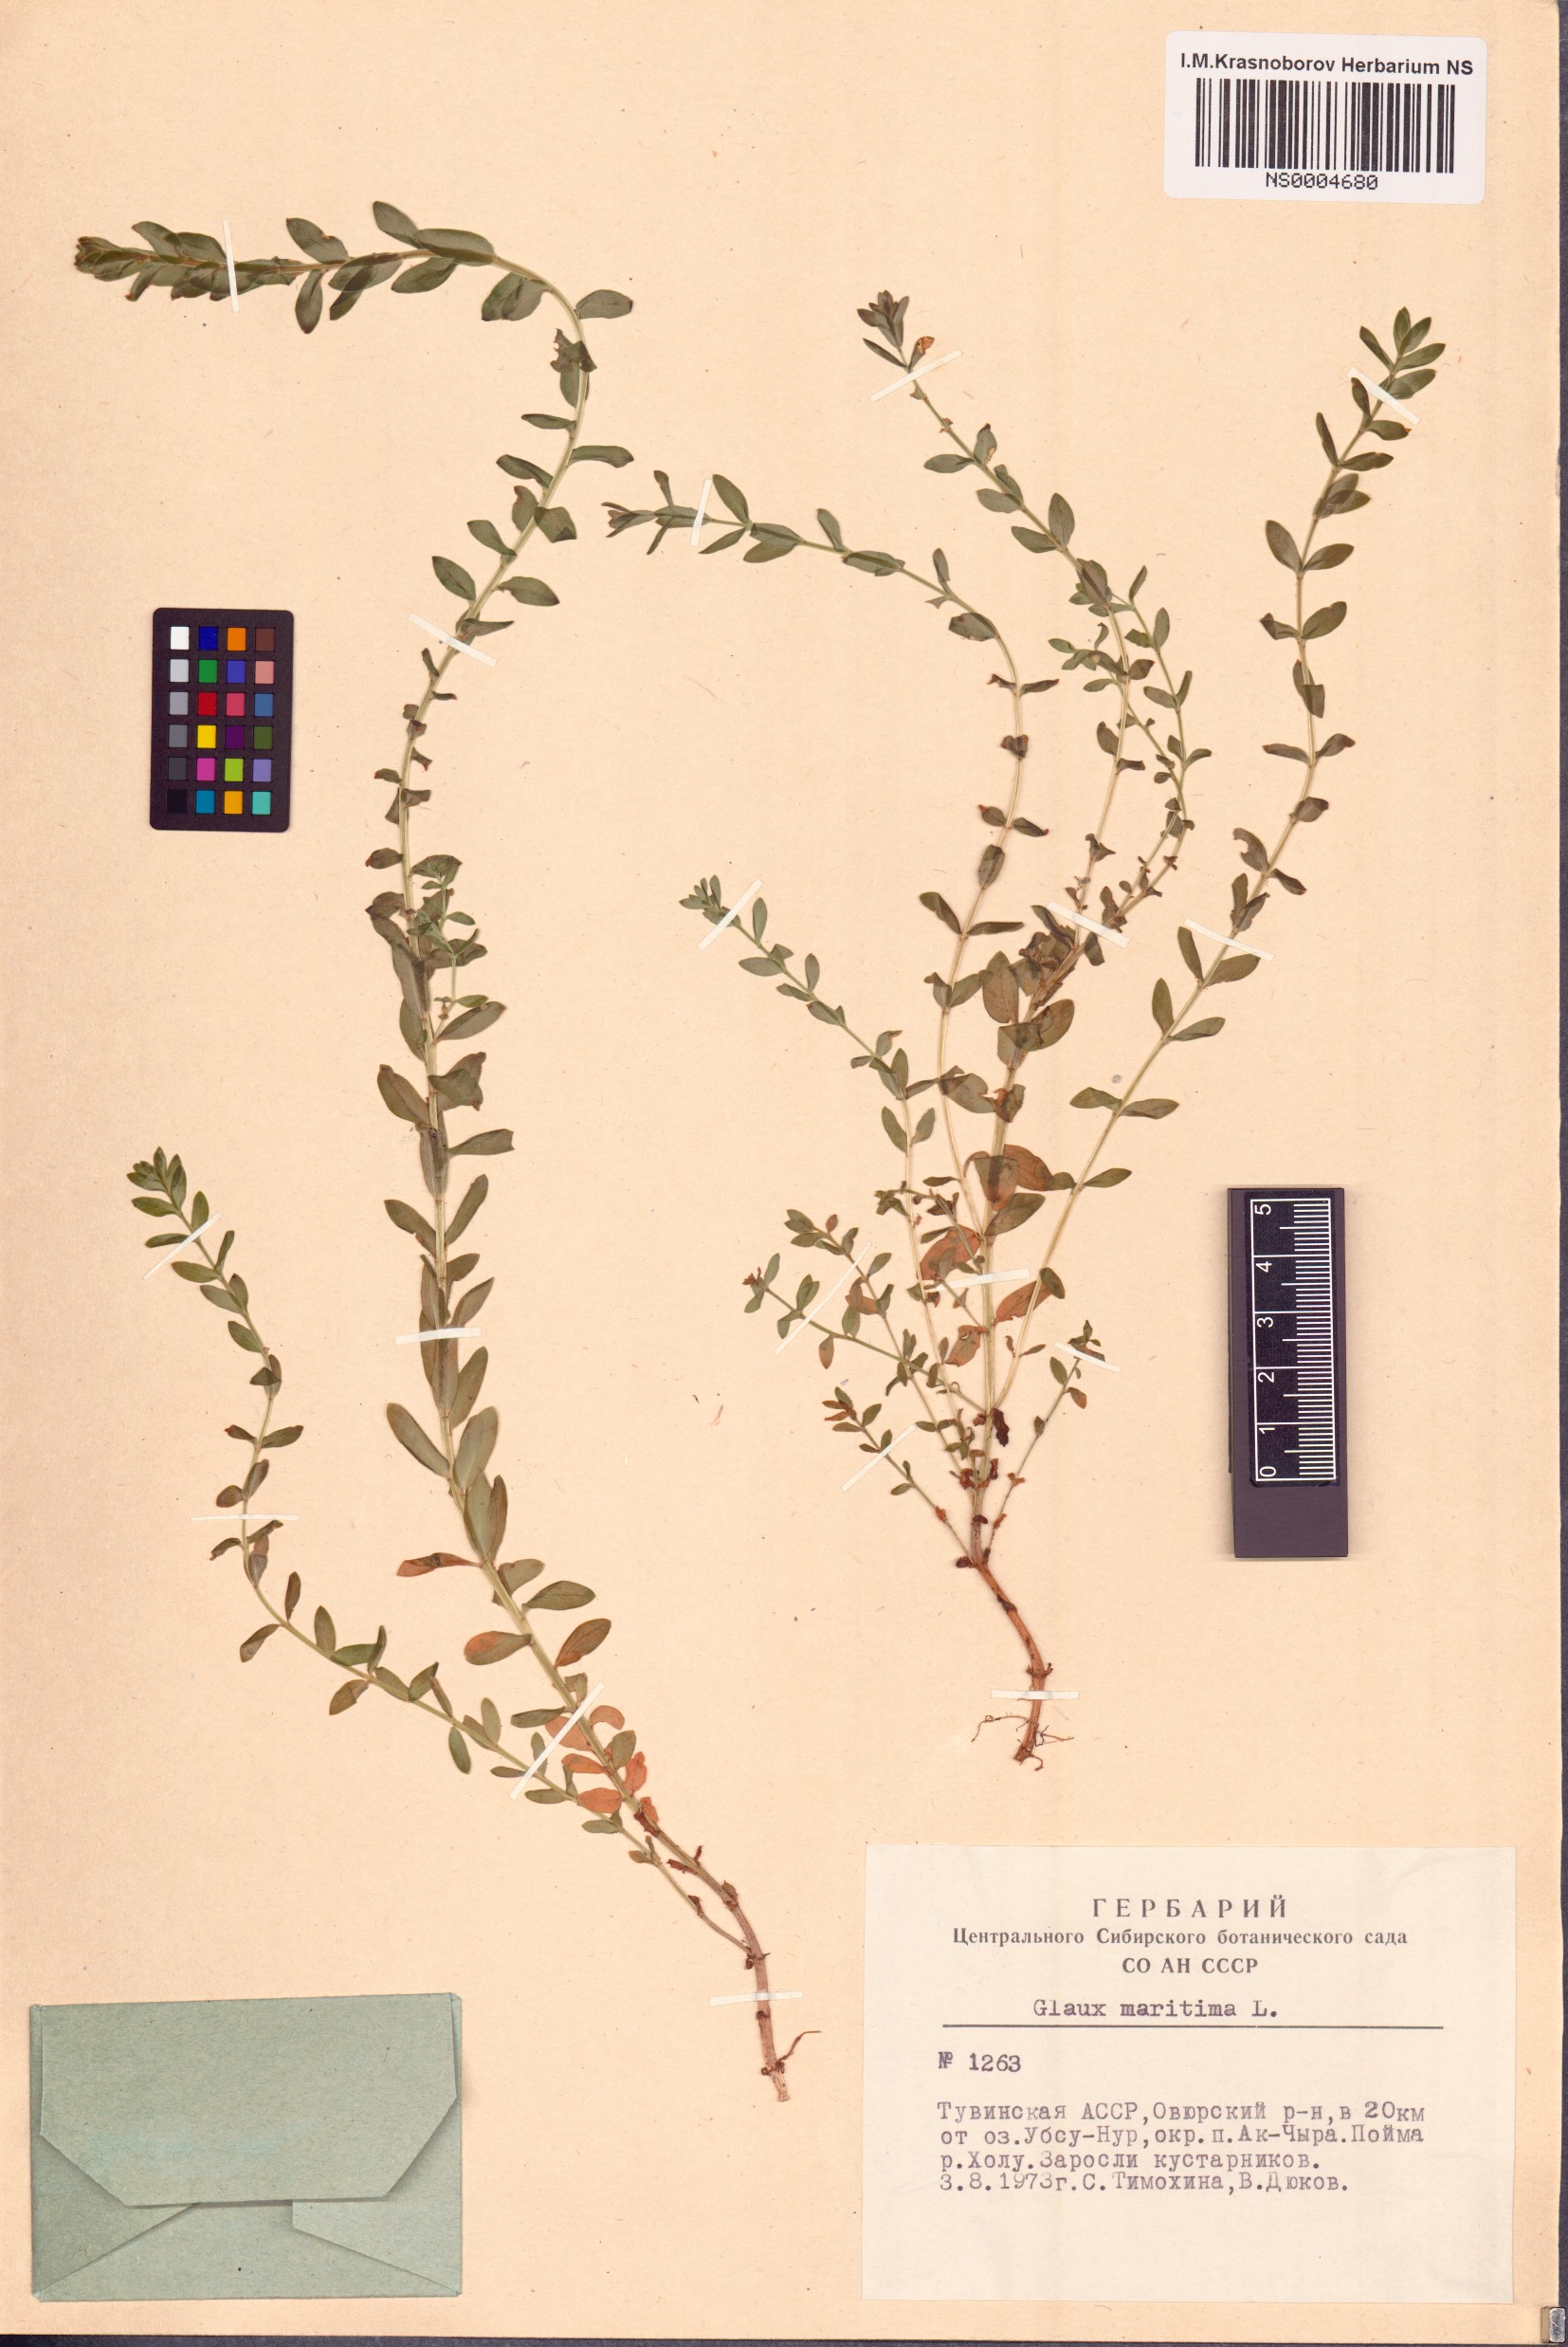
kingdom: Plantae
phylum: Tracheophyta
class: Magnoliopsida
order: Ericales
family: Primulaceae
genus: Lysimachia
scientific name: Lysimachia maritima
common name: Sea milkwort
